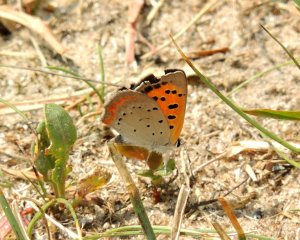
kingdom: Animalia
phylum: Arthropoda
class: Insecta
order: Lepidoptera
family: Lycaenidae
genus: Lycaena
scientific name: Lycaena phlaeas
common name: American Copper
